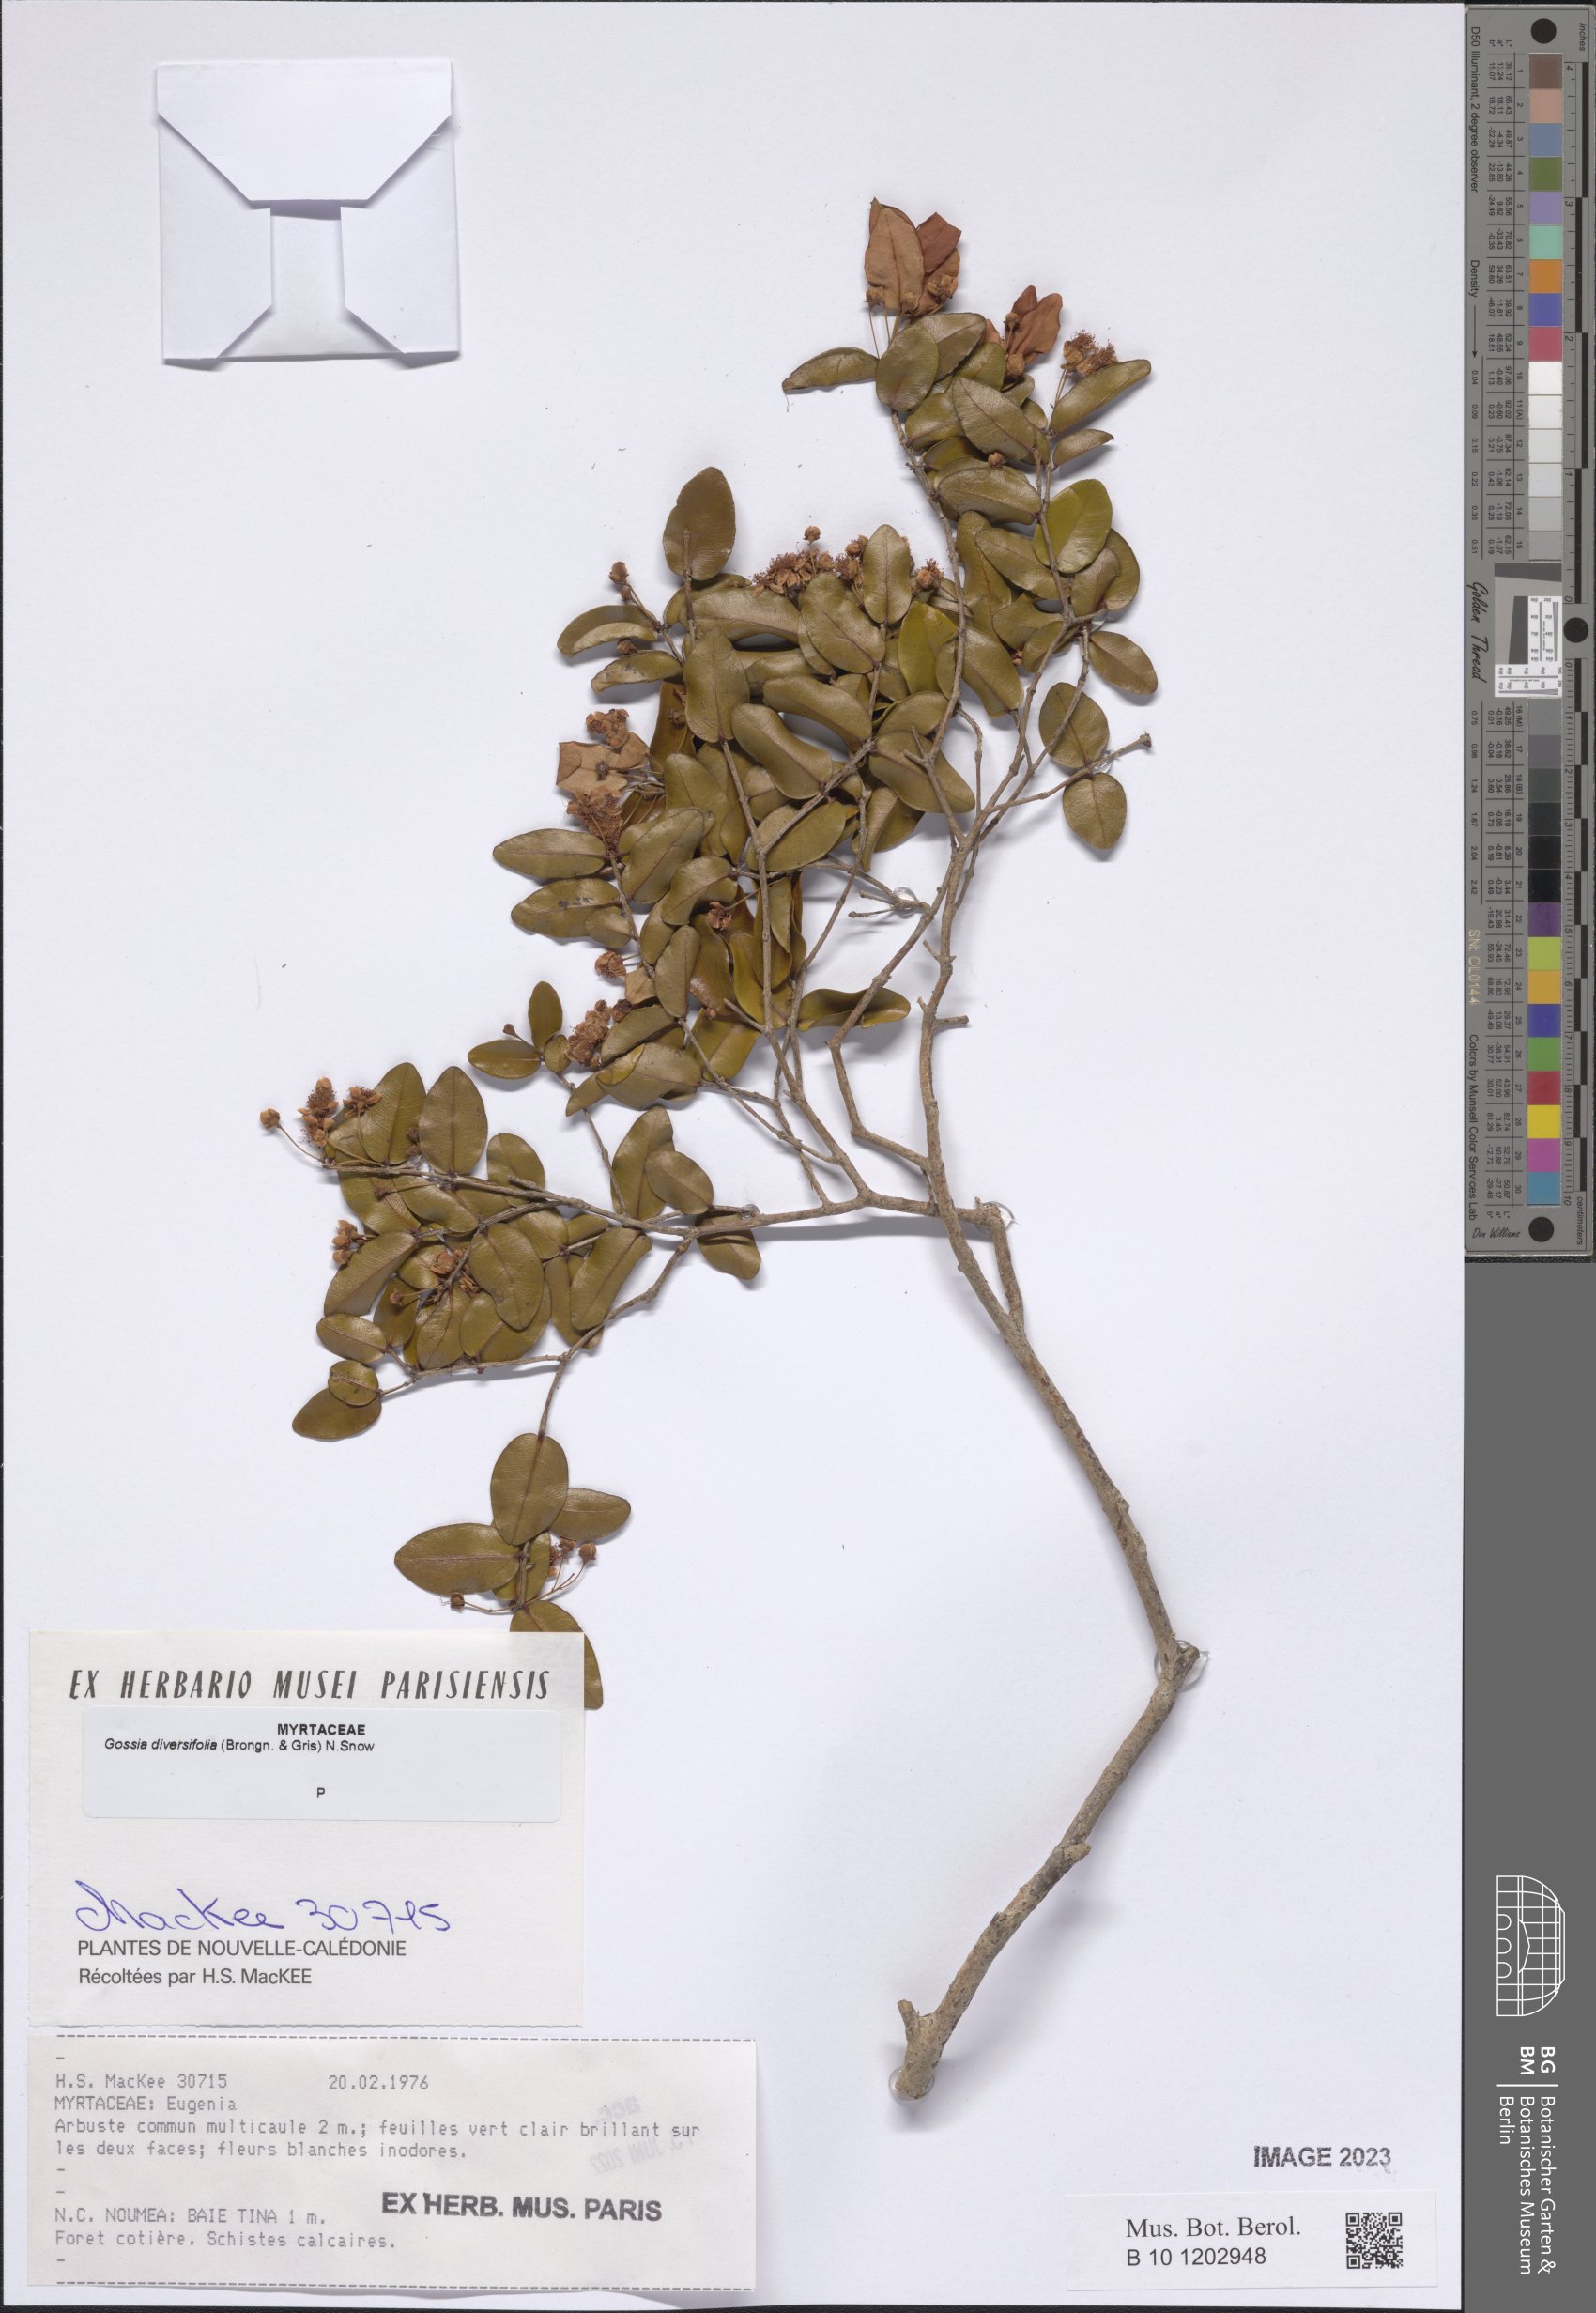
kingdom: Plantae
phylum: Tracheophyta
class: Magnoliopsida
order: Myrtales
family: Myrtaceae
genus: Gossia
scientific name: Gossia diversifolia
